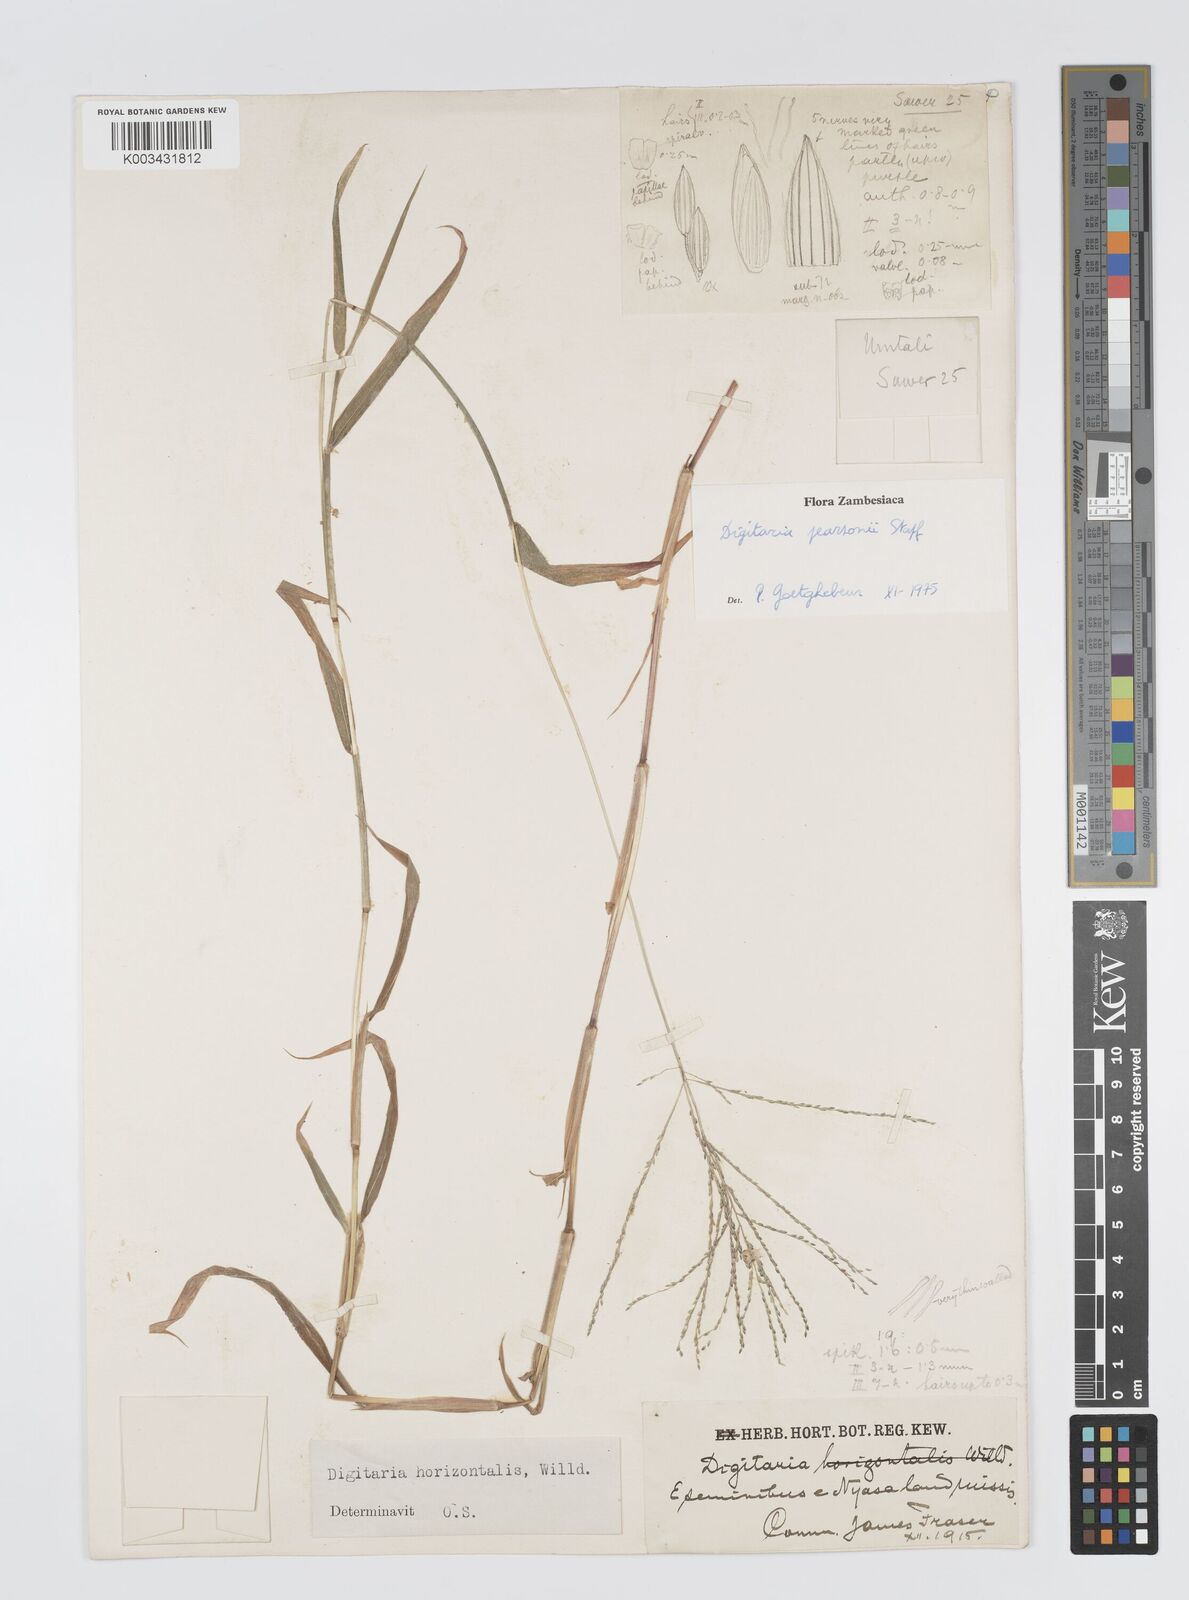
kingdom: Plantae
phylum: Tracheophyta
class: Liliopsida
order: Poales
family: Poaceae
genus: Digitaria
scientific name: Digitaria pearsonii
